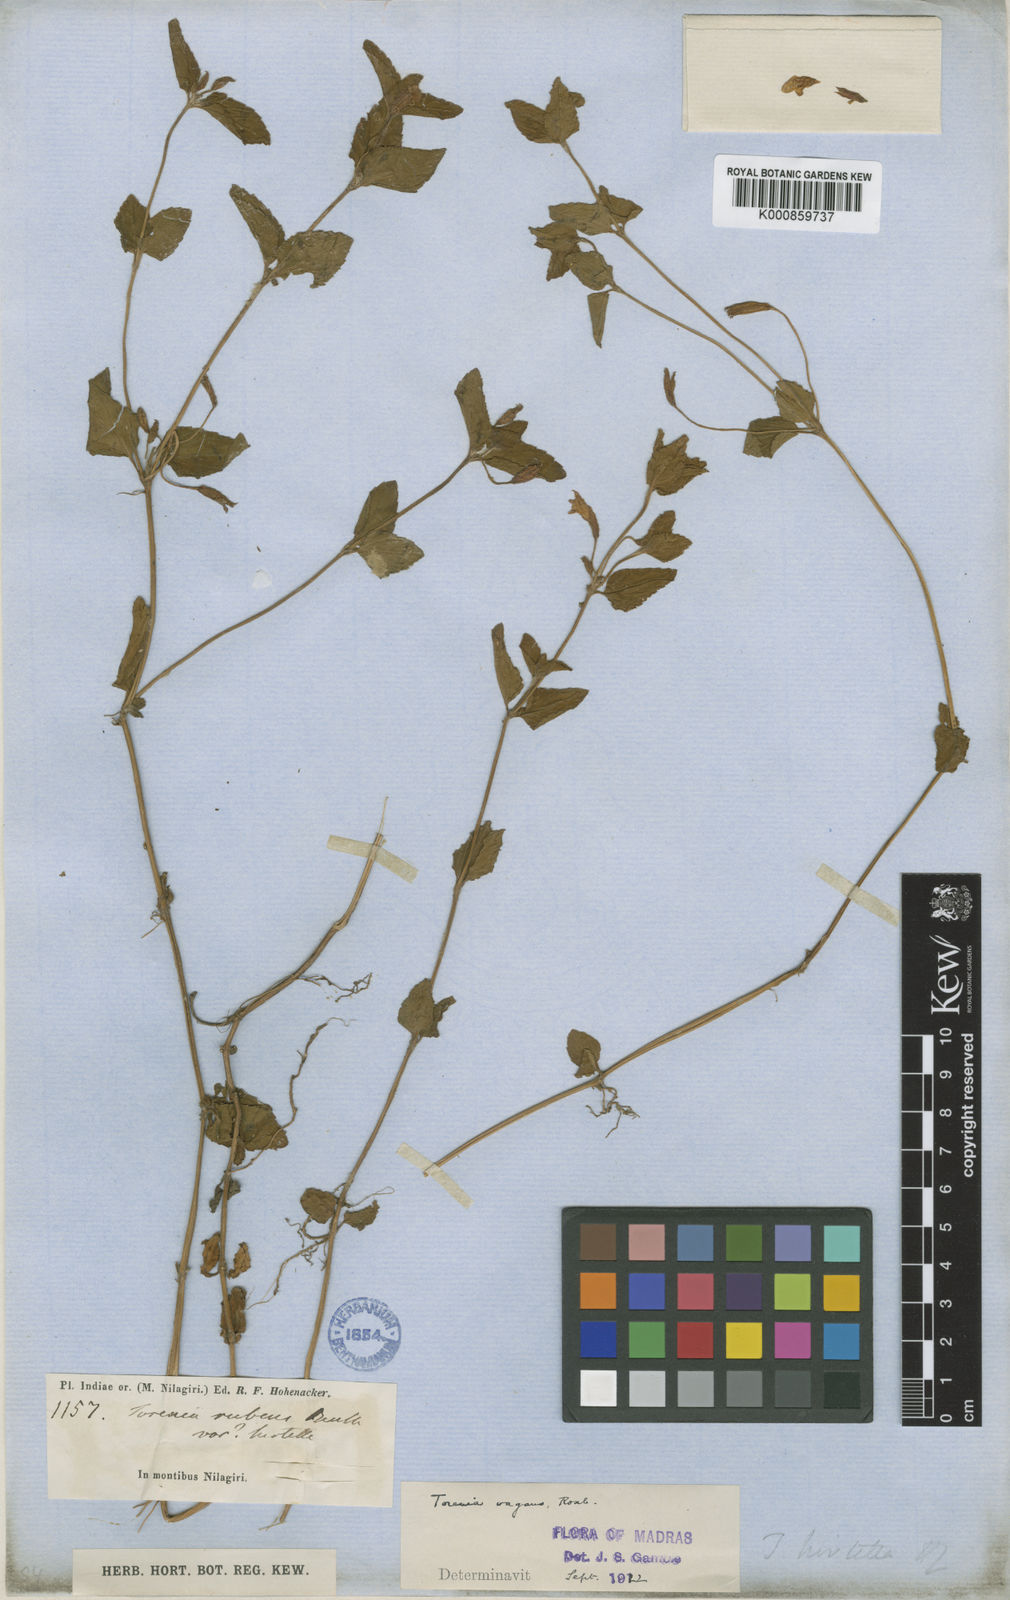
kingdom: Plantae
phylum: Tracheophyta
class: Magnoliopsida
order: Lamiales
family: Linderniaceae
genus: Torenia
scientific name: Torenia diffusa
